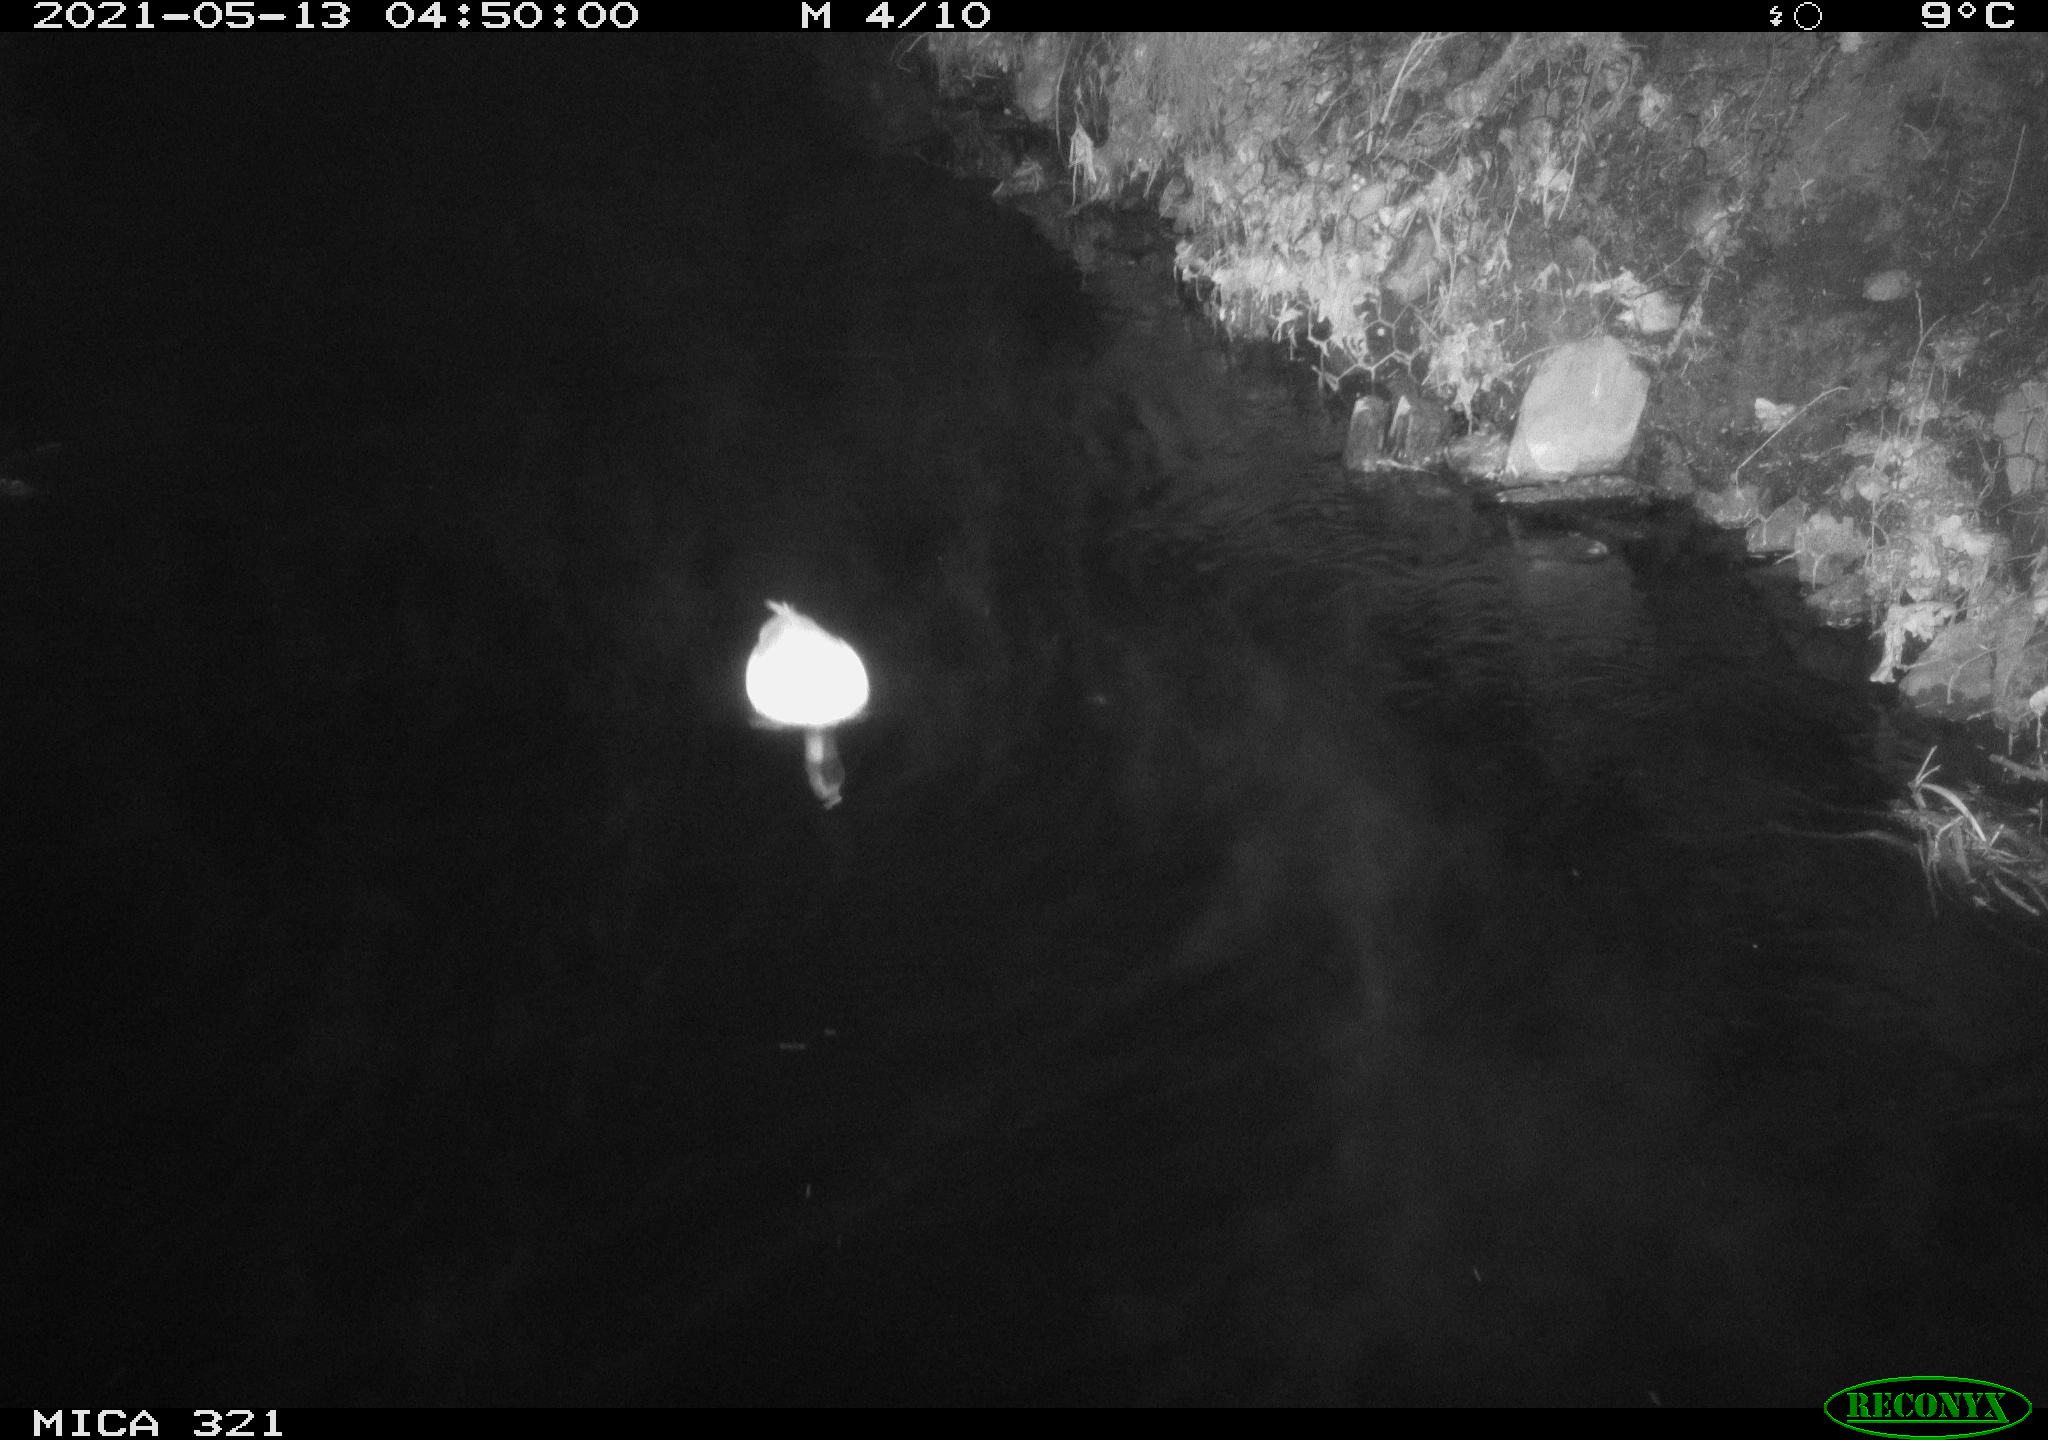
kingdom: Animalia
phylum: Chordata
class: Aves
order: Anseriformes
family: Anatidae
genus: Anas
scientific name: Anas platyrhynchos
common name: Mallard
